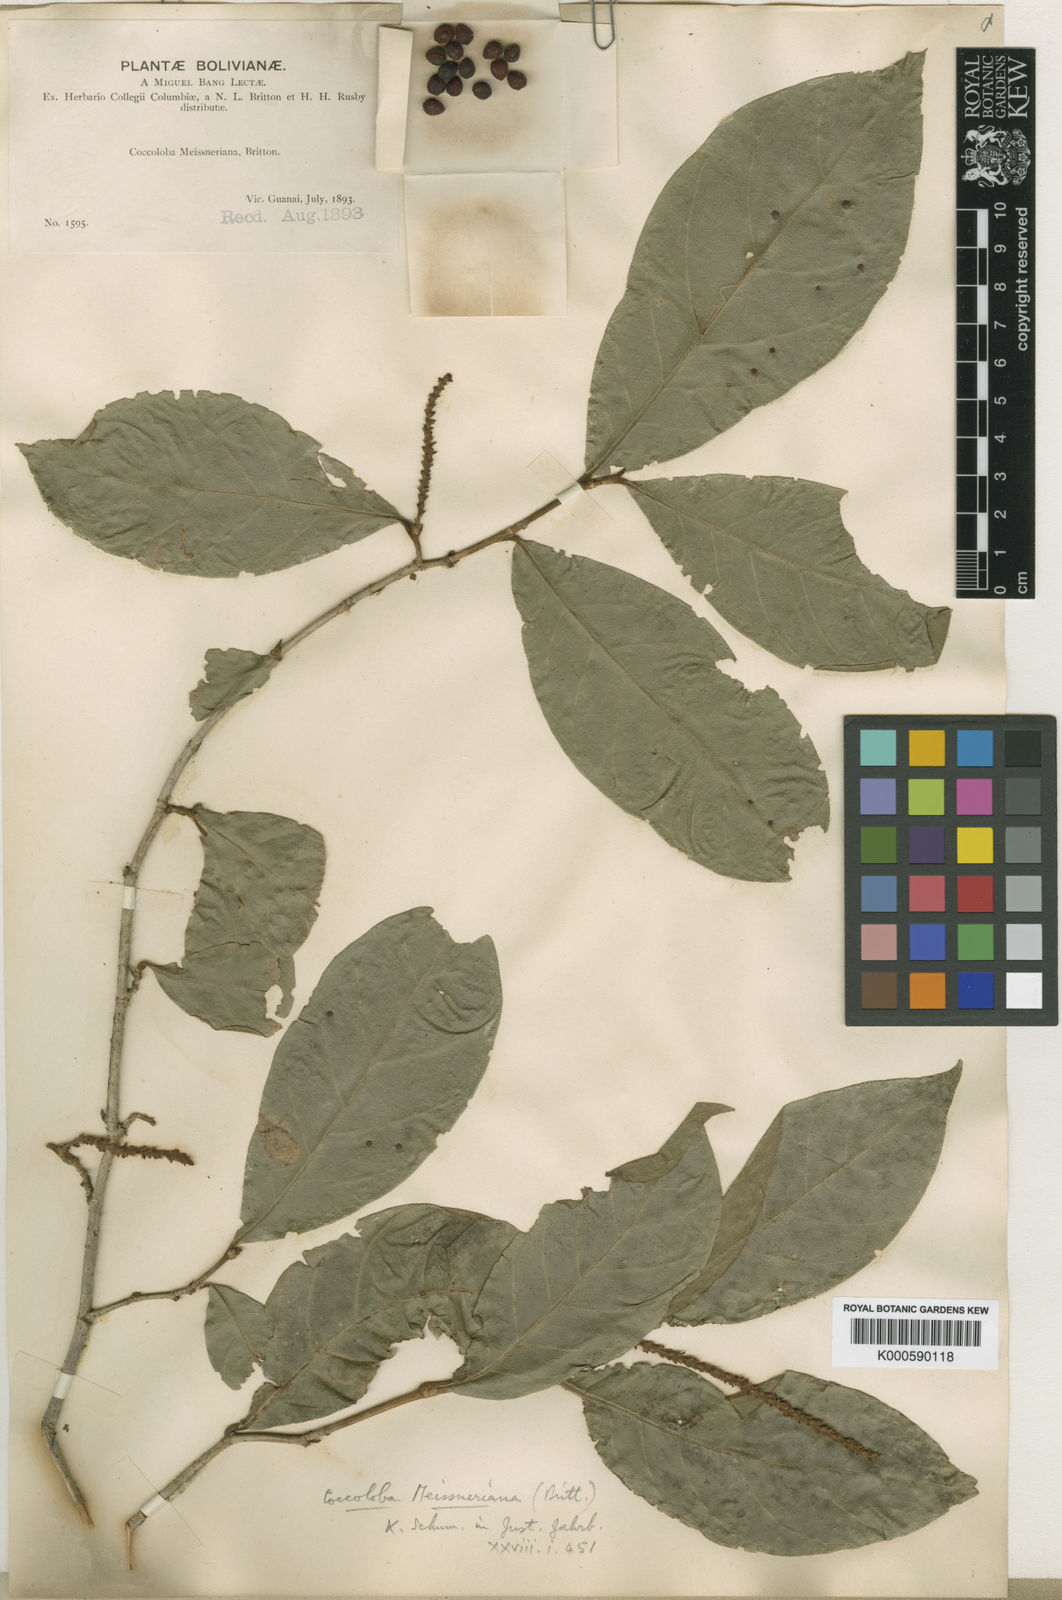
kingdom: Plantae
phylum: Tracheophyta
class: Magnoliopsida
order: Caryophyllales
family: Polygonaceae
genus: Coccoloba
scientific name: Coccoloba meissneriana
